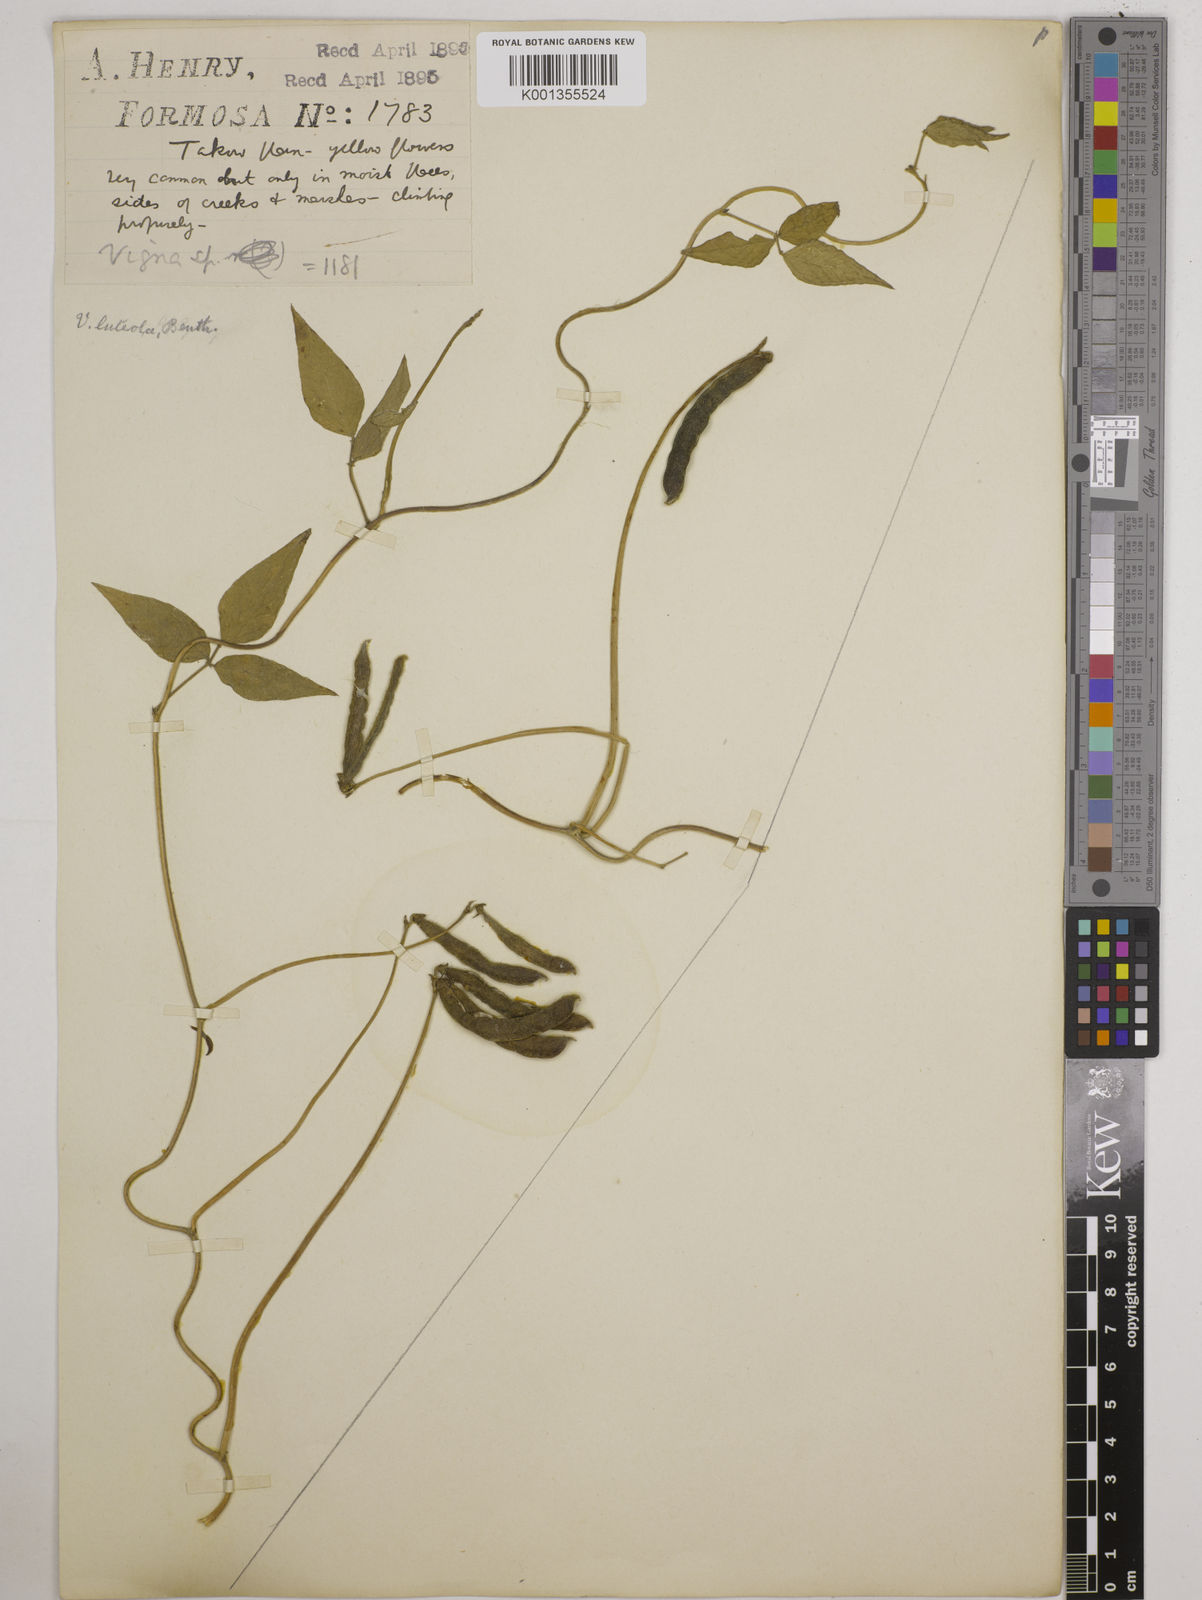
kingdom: Plantae
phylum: Tracheophyta
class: Magnoliopsida
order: Fabales
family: Fabaceae
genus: Vigna
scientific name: Vigna luteola
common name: Hairypod cowpea
